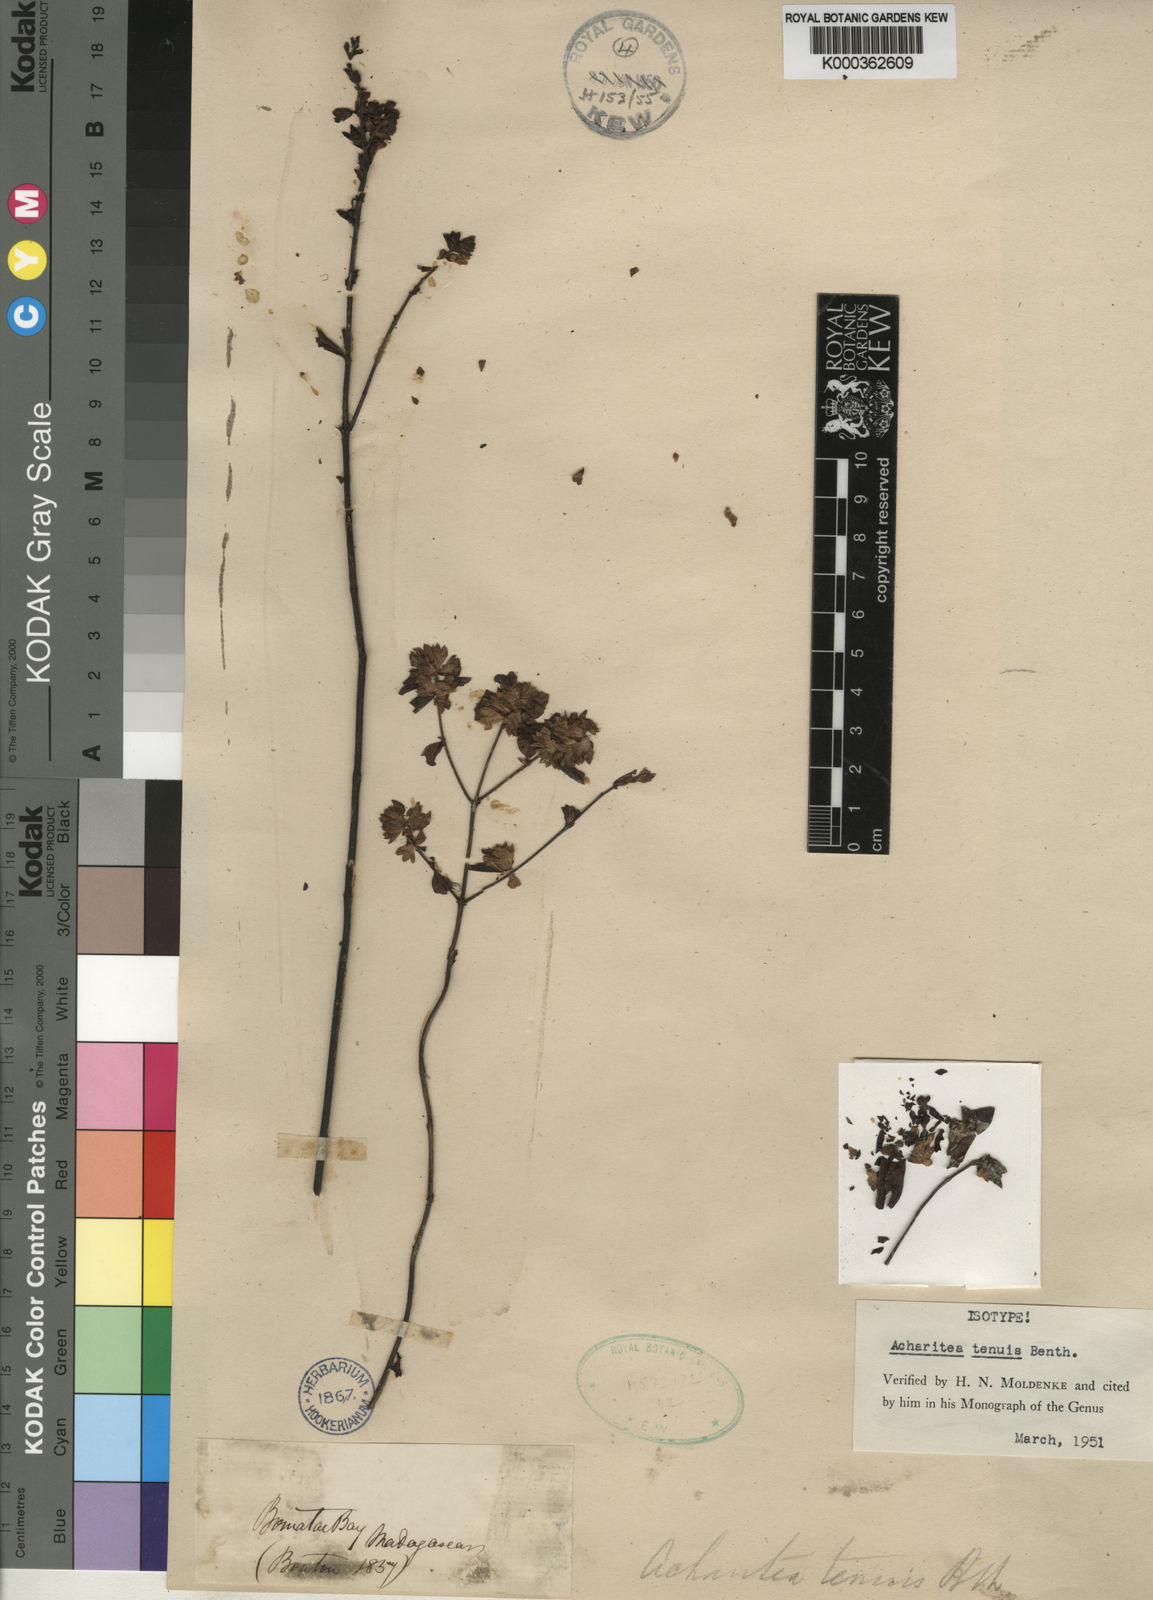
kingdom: Plantae
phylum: Tracheophyta
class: Magnoliopsida
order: Lamiales
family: Orobanchaceae
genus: Nesogenes
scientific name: Nesogenes tenuis
